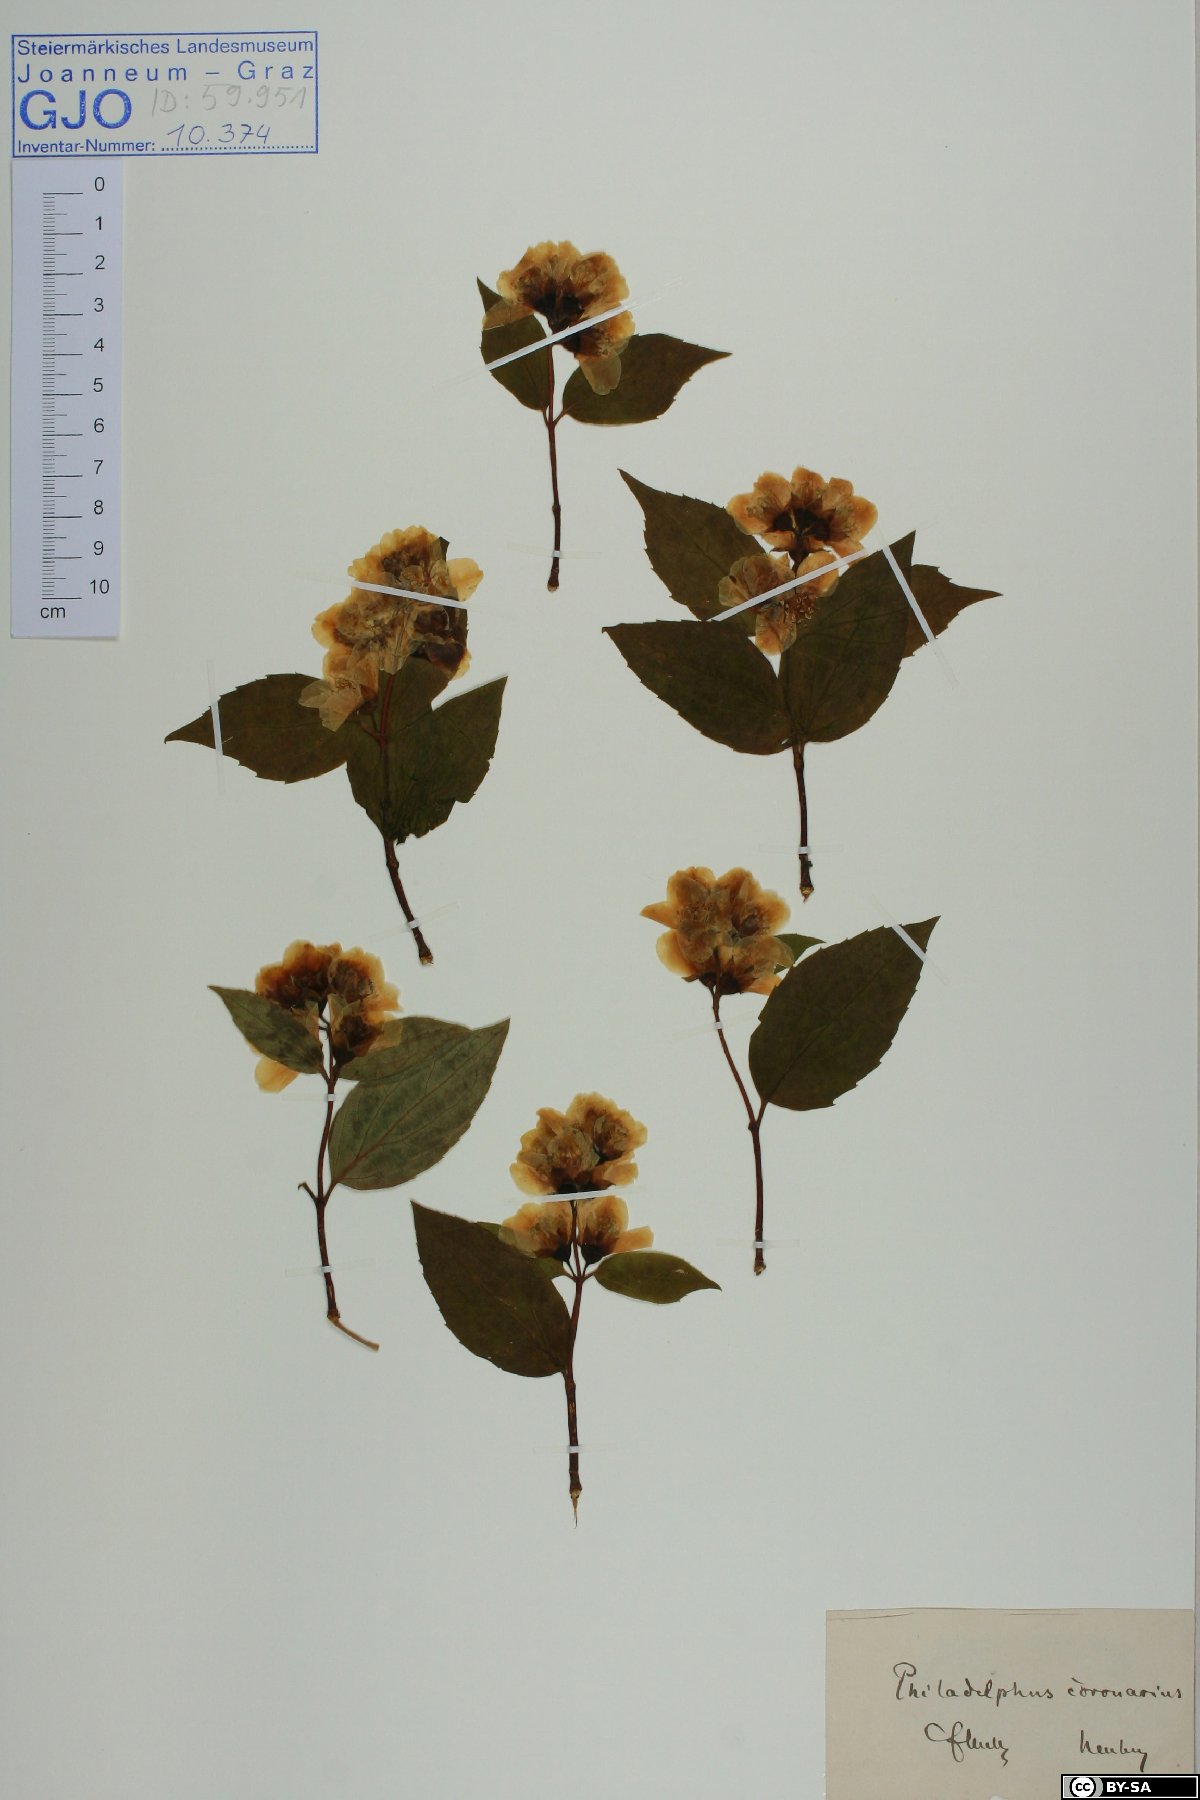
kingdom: Plantae
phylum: Tracheophyta
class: Magnoliopsida
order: Cornales
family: Hydrangeaceae
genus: Philadelphus
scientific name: Philadelphus coronarius
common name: Mock orange
